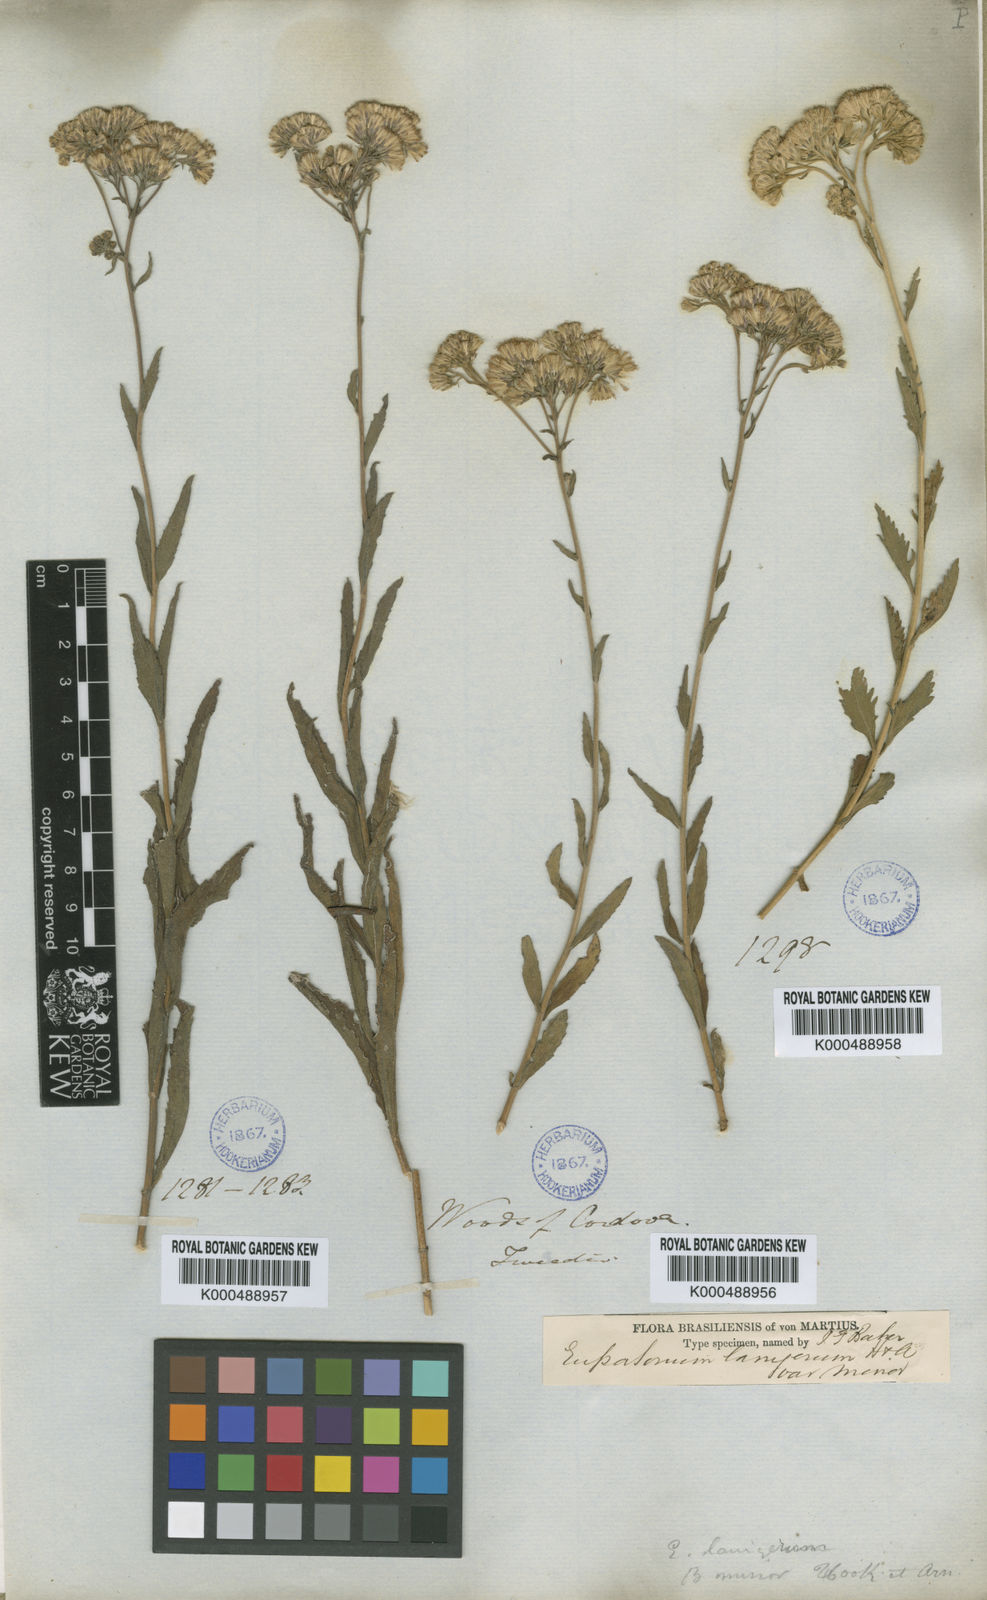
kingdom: Plantae
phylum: Tracheophyta
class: Magnoliopsida
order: Asterales
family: Asteraceae
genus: Gyptis
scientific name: Gyptis lanigera
